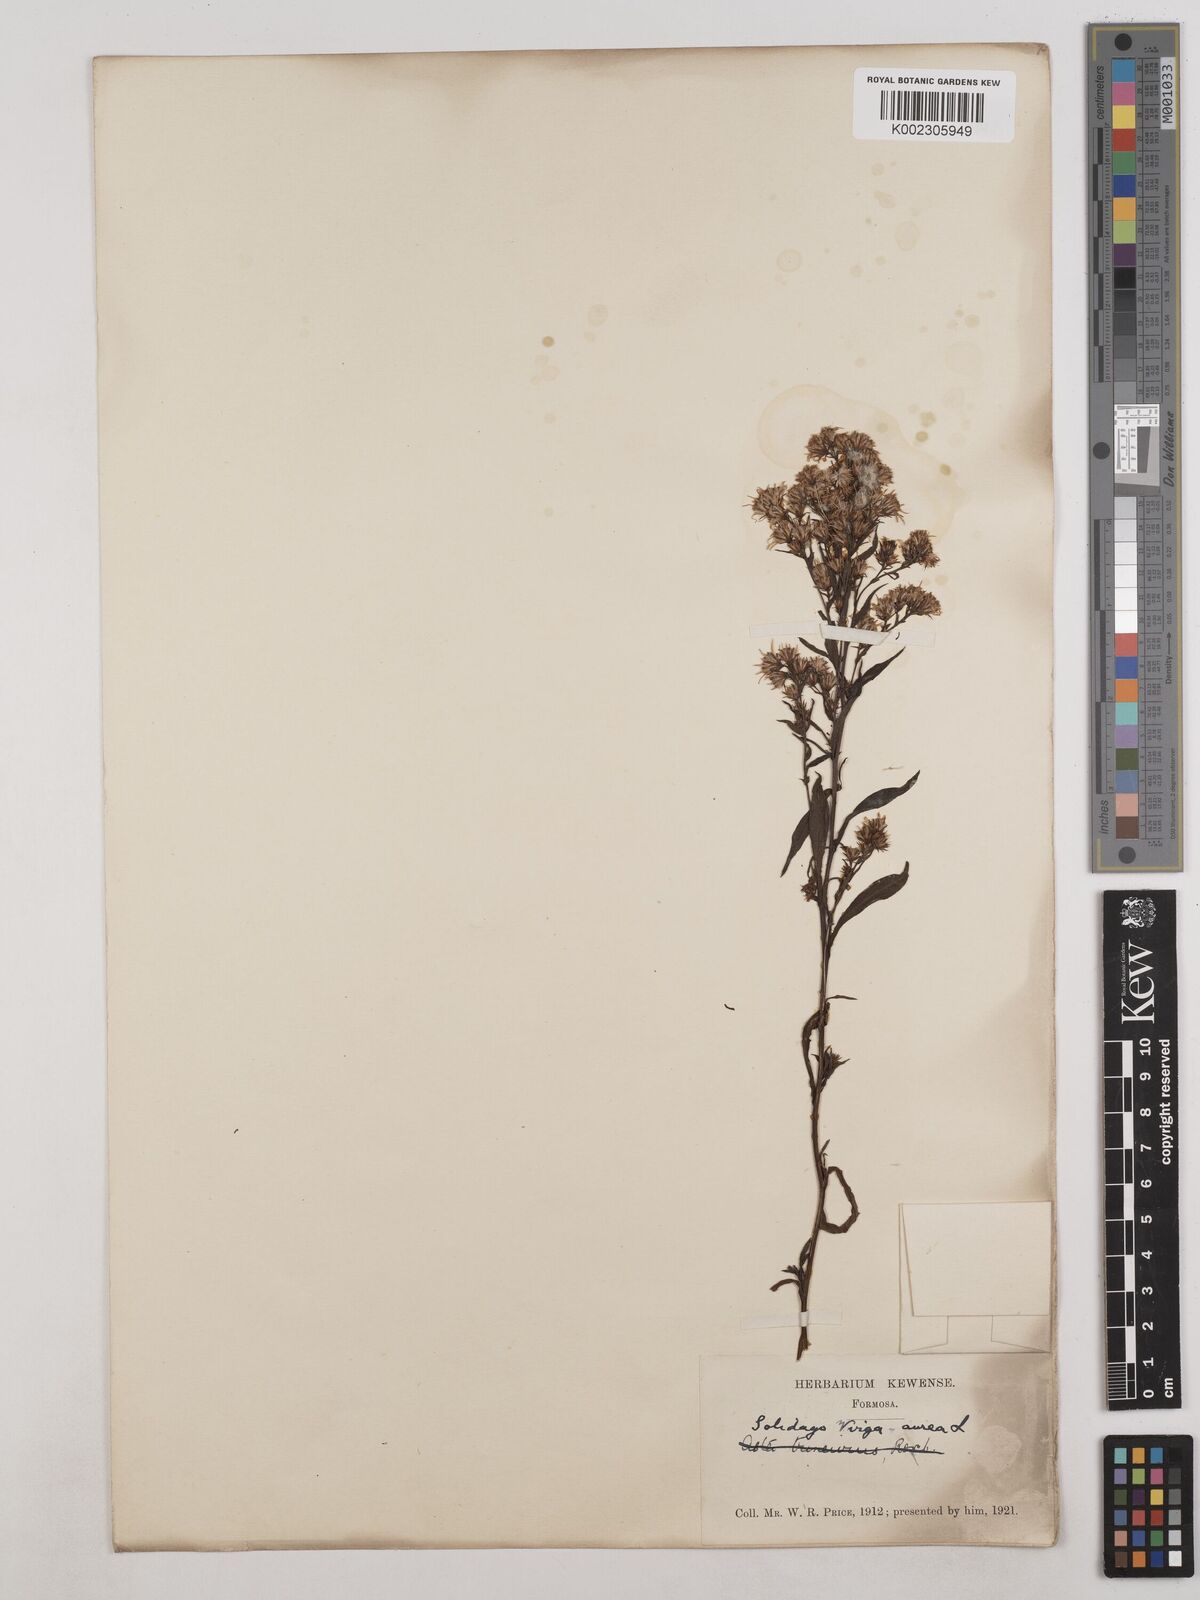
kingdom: Plantae
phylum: Tracheophyta
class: Magnoliopsida
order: Asterales
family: Asteraceae
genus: Solidago
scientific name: Solidago virgaurea
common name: Goldenrod
